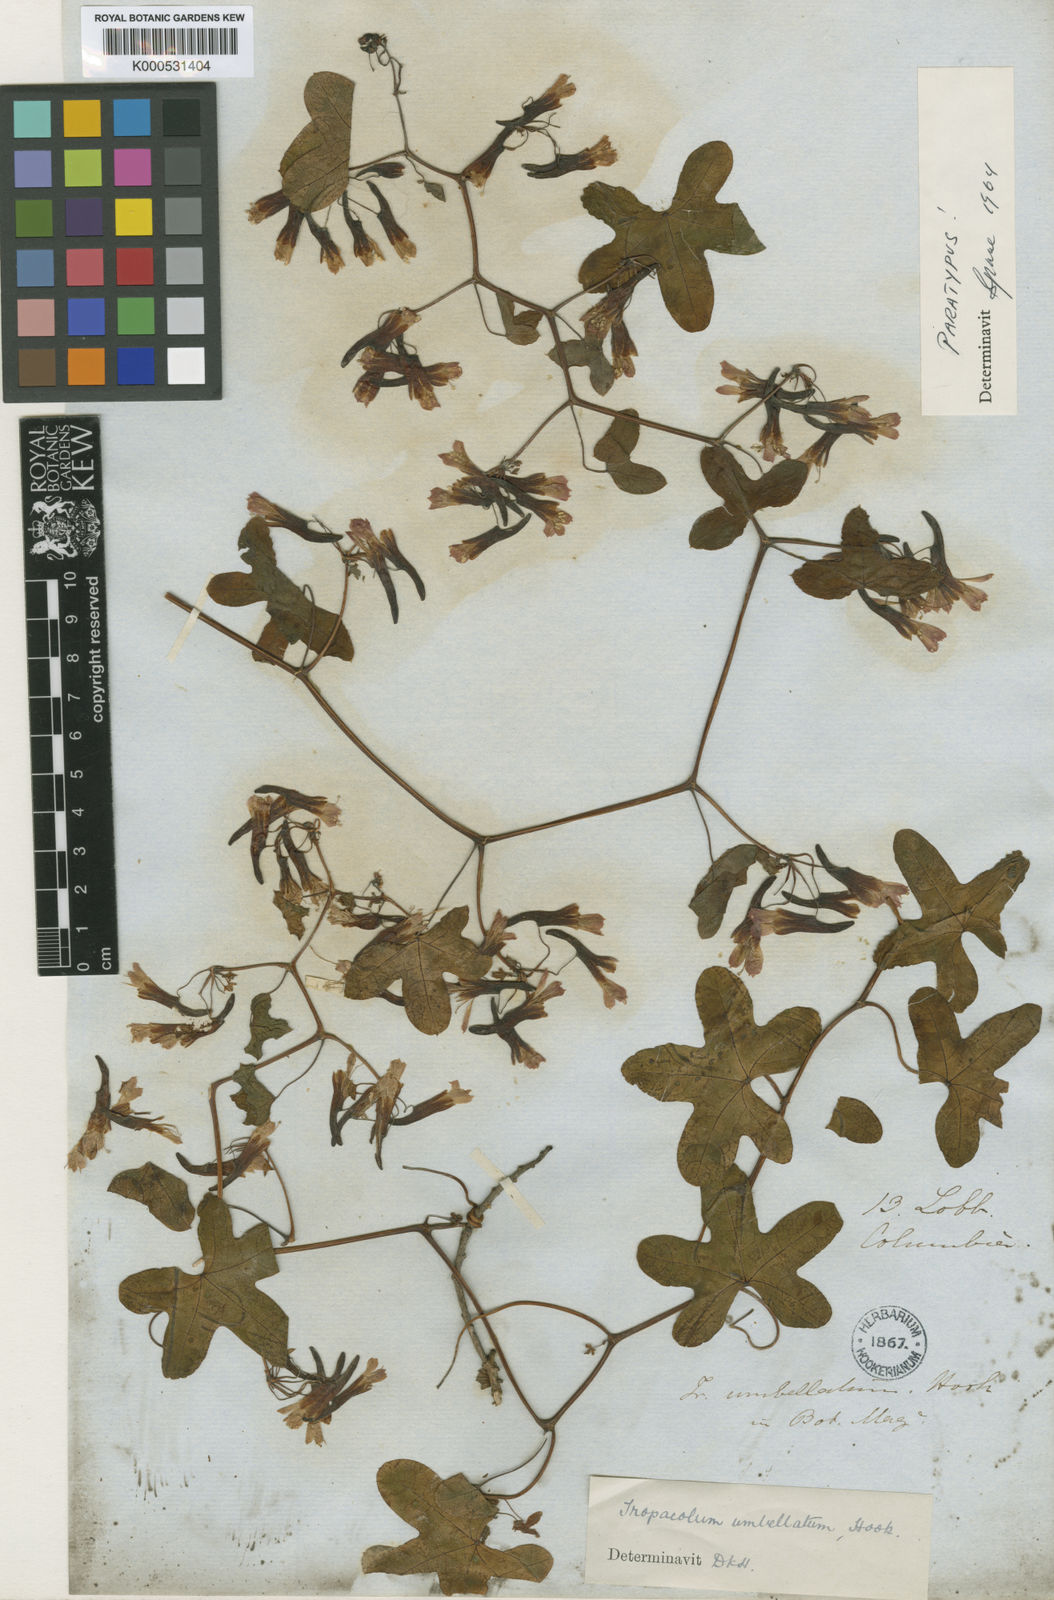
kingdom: Plantae
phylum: Tracheophyta
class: Magnoliopsida
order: Brassicales
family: Tropaeolaceae
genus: Tropaeolum
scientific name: Tropaeolum umbellatum
